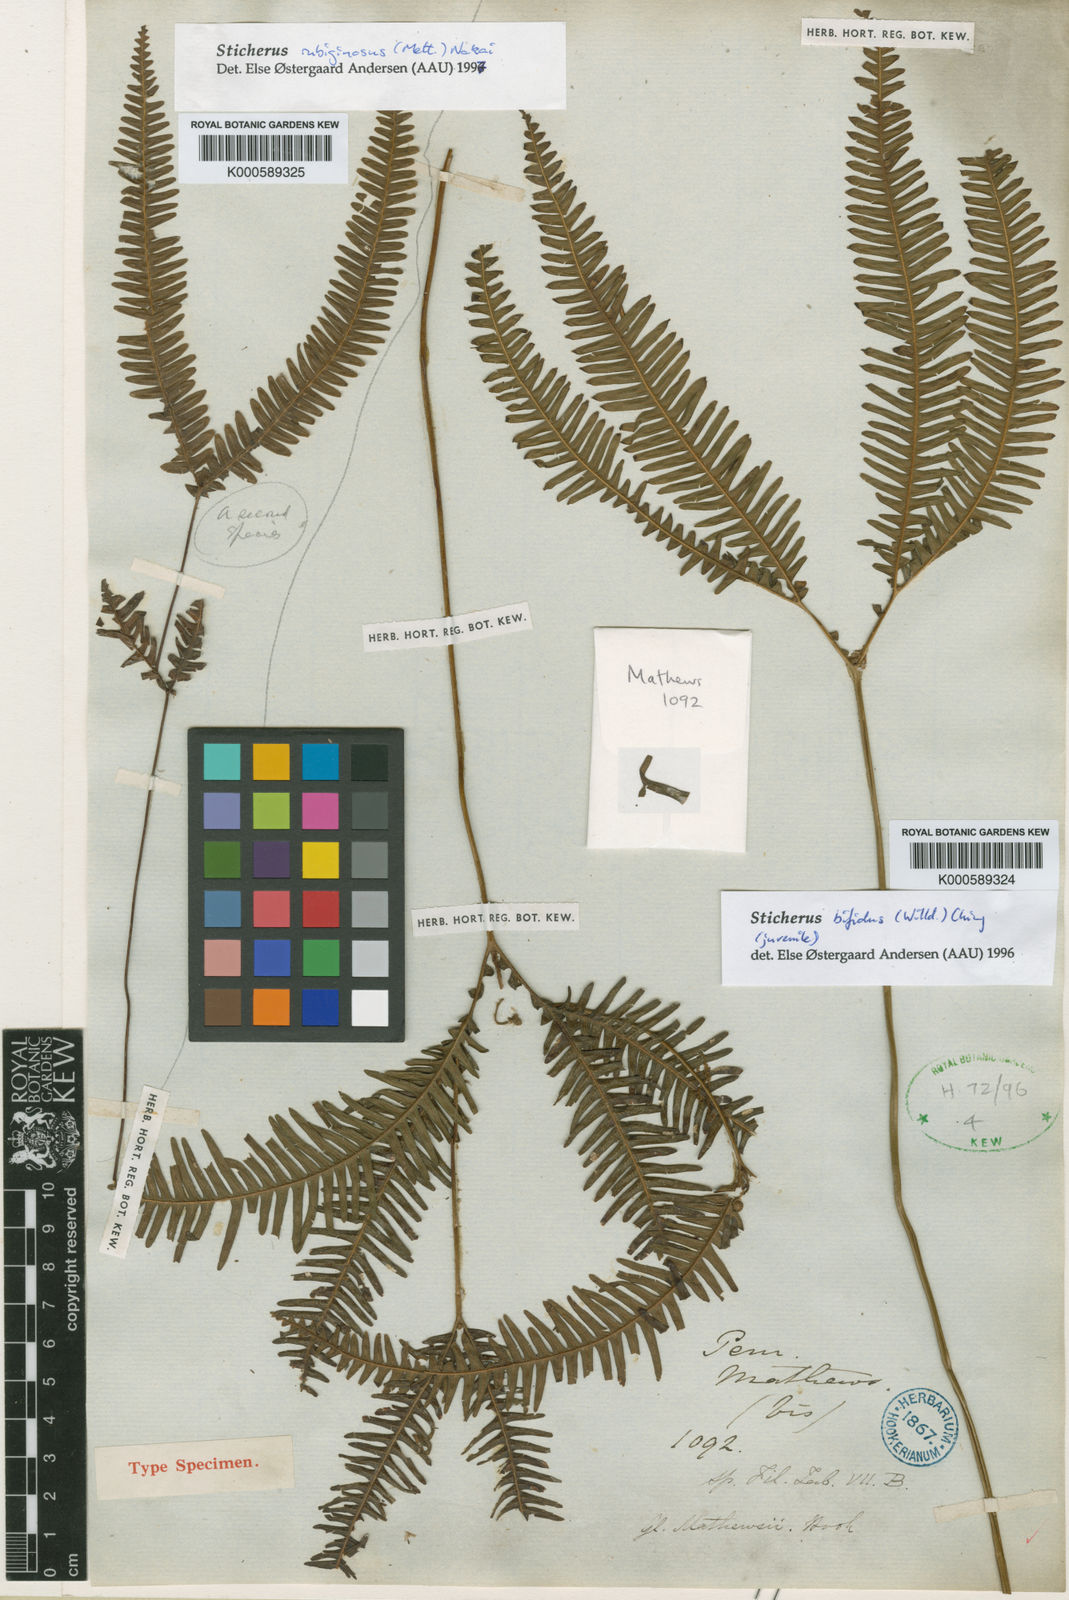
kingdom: Plantae
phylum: Tracheophyta
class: Polypodiopsida
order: Gleicheniales
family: Gleicheniaceae
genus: Sticherus
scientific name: Sticherus bifidus
